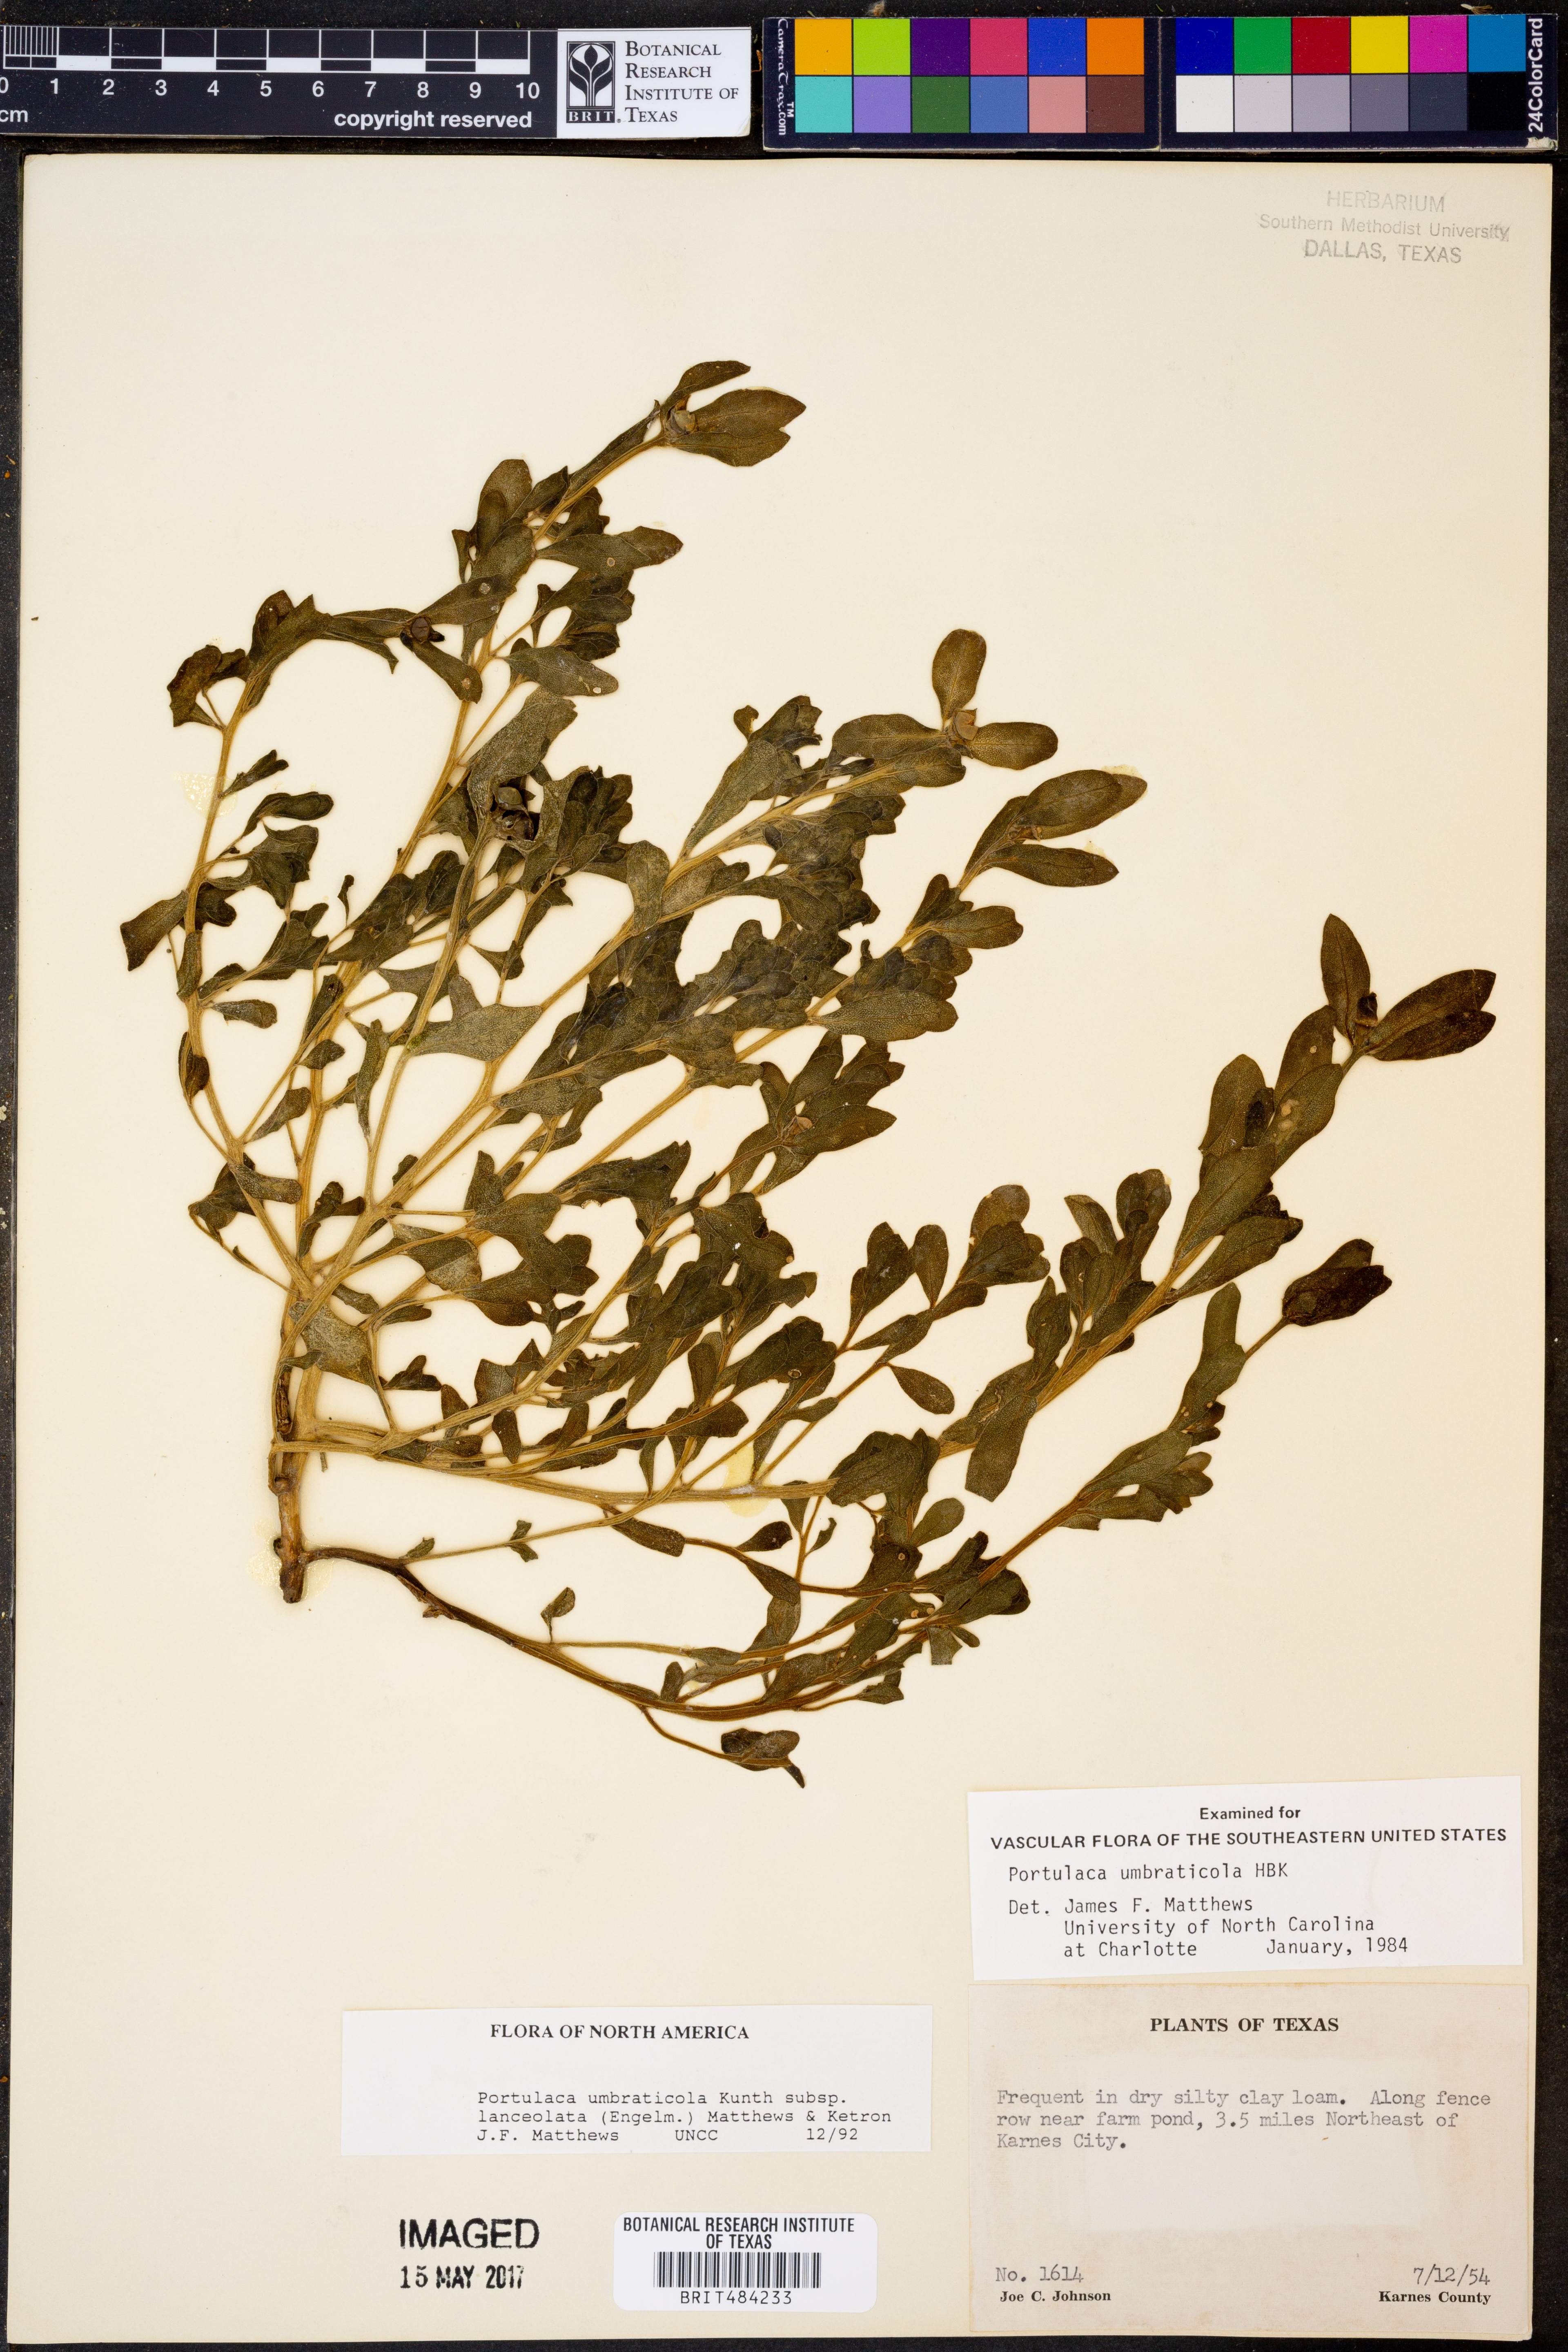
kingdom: Plantae
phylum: Tracheophyta
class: Magnoliopsida
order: Caryophyllales
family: Portulacaceae
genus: Portulaca
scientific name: Portulaca umbraticola
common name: Wingpod purslane
